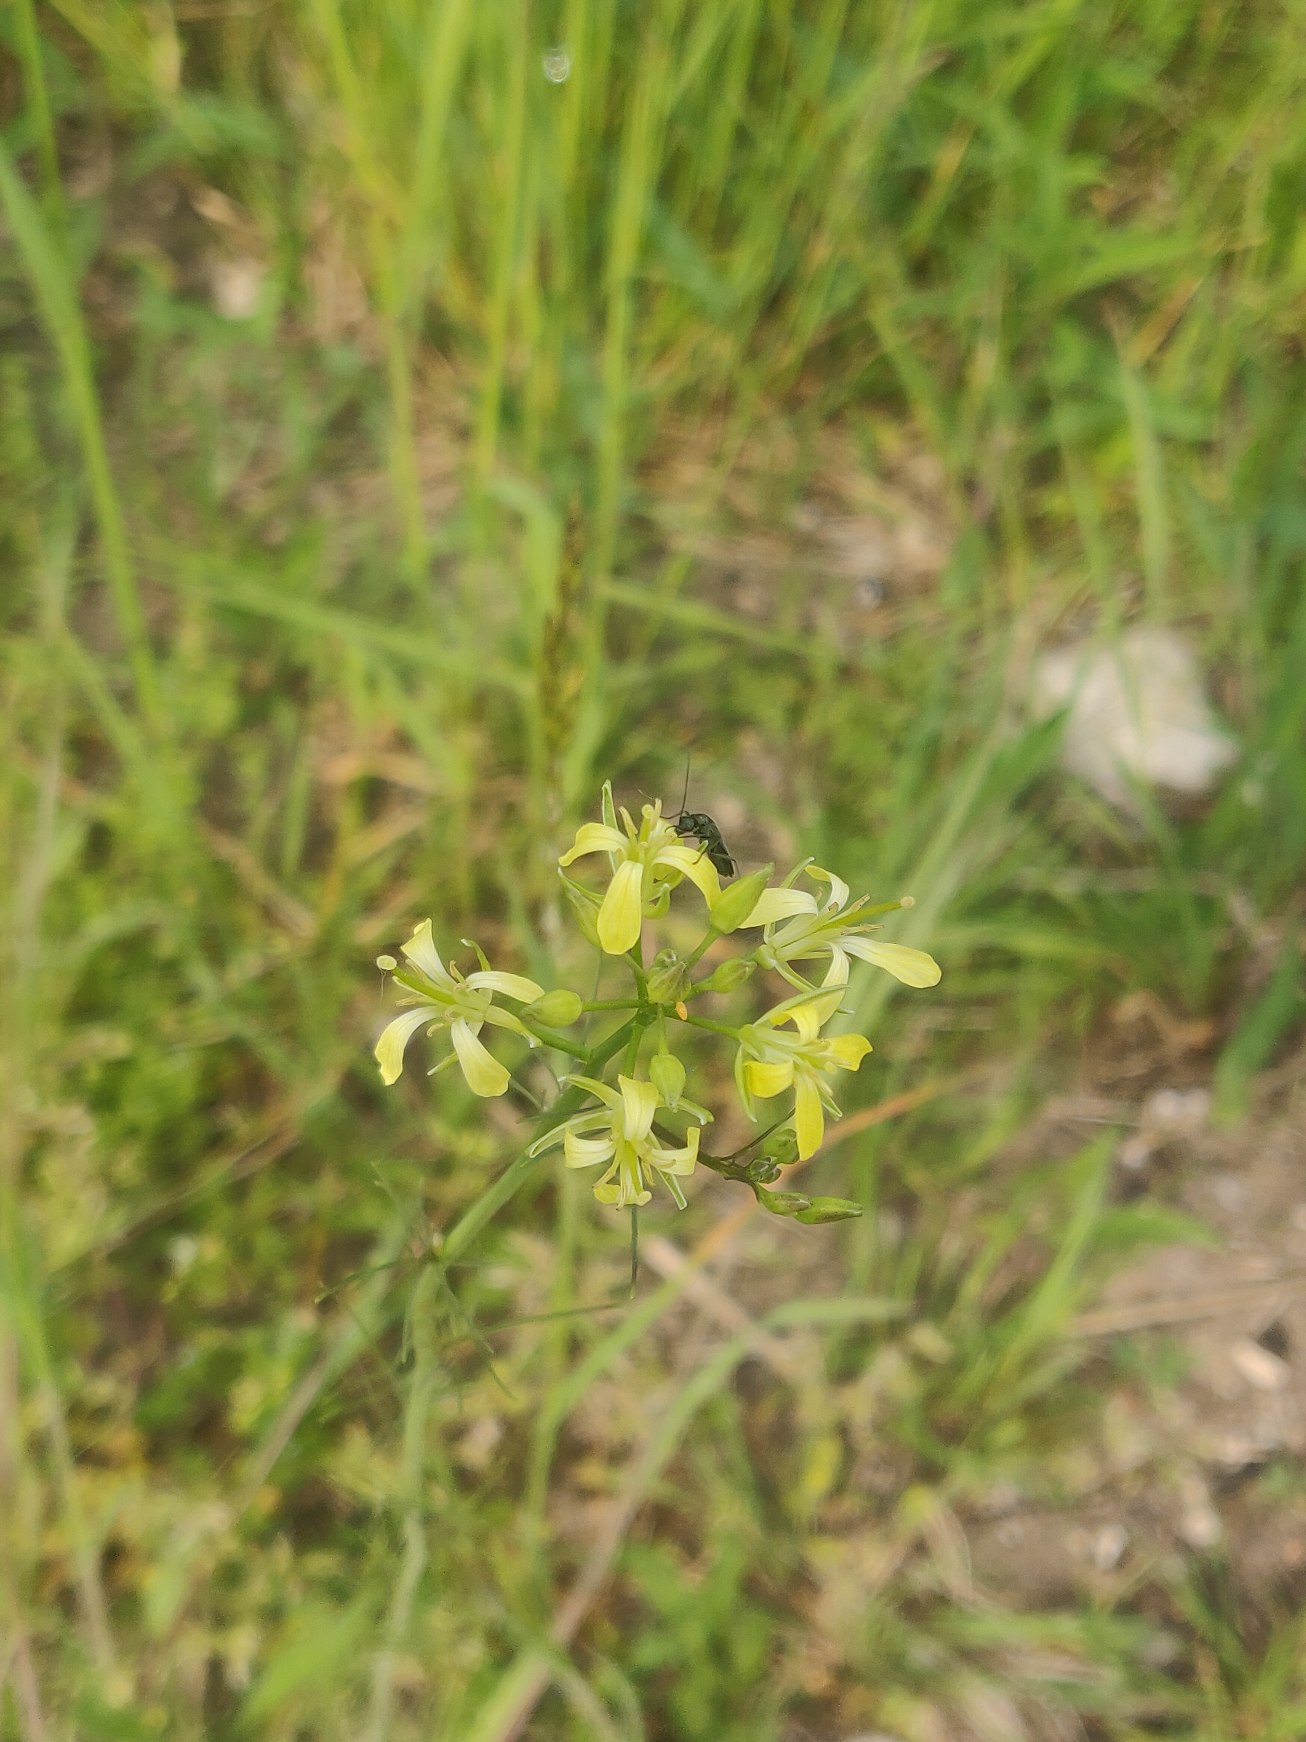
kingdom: Plantae
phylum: Tracheophyta
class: Magnoliopsida
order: Brassicales
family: Brassicaceae
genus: Sisymbrium
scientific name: Sisymbrium altissimum
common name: Ungarsk vejsennep
